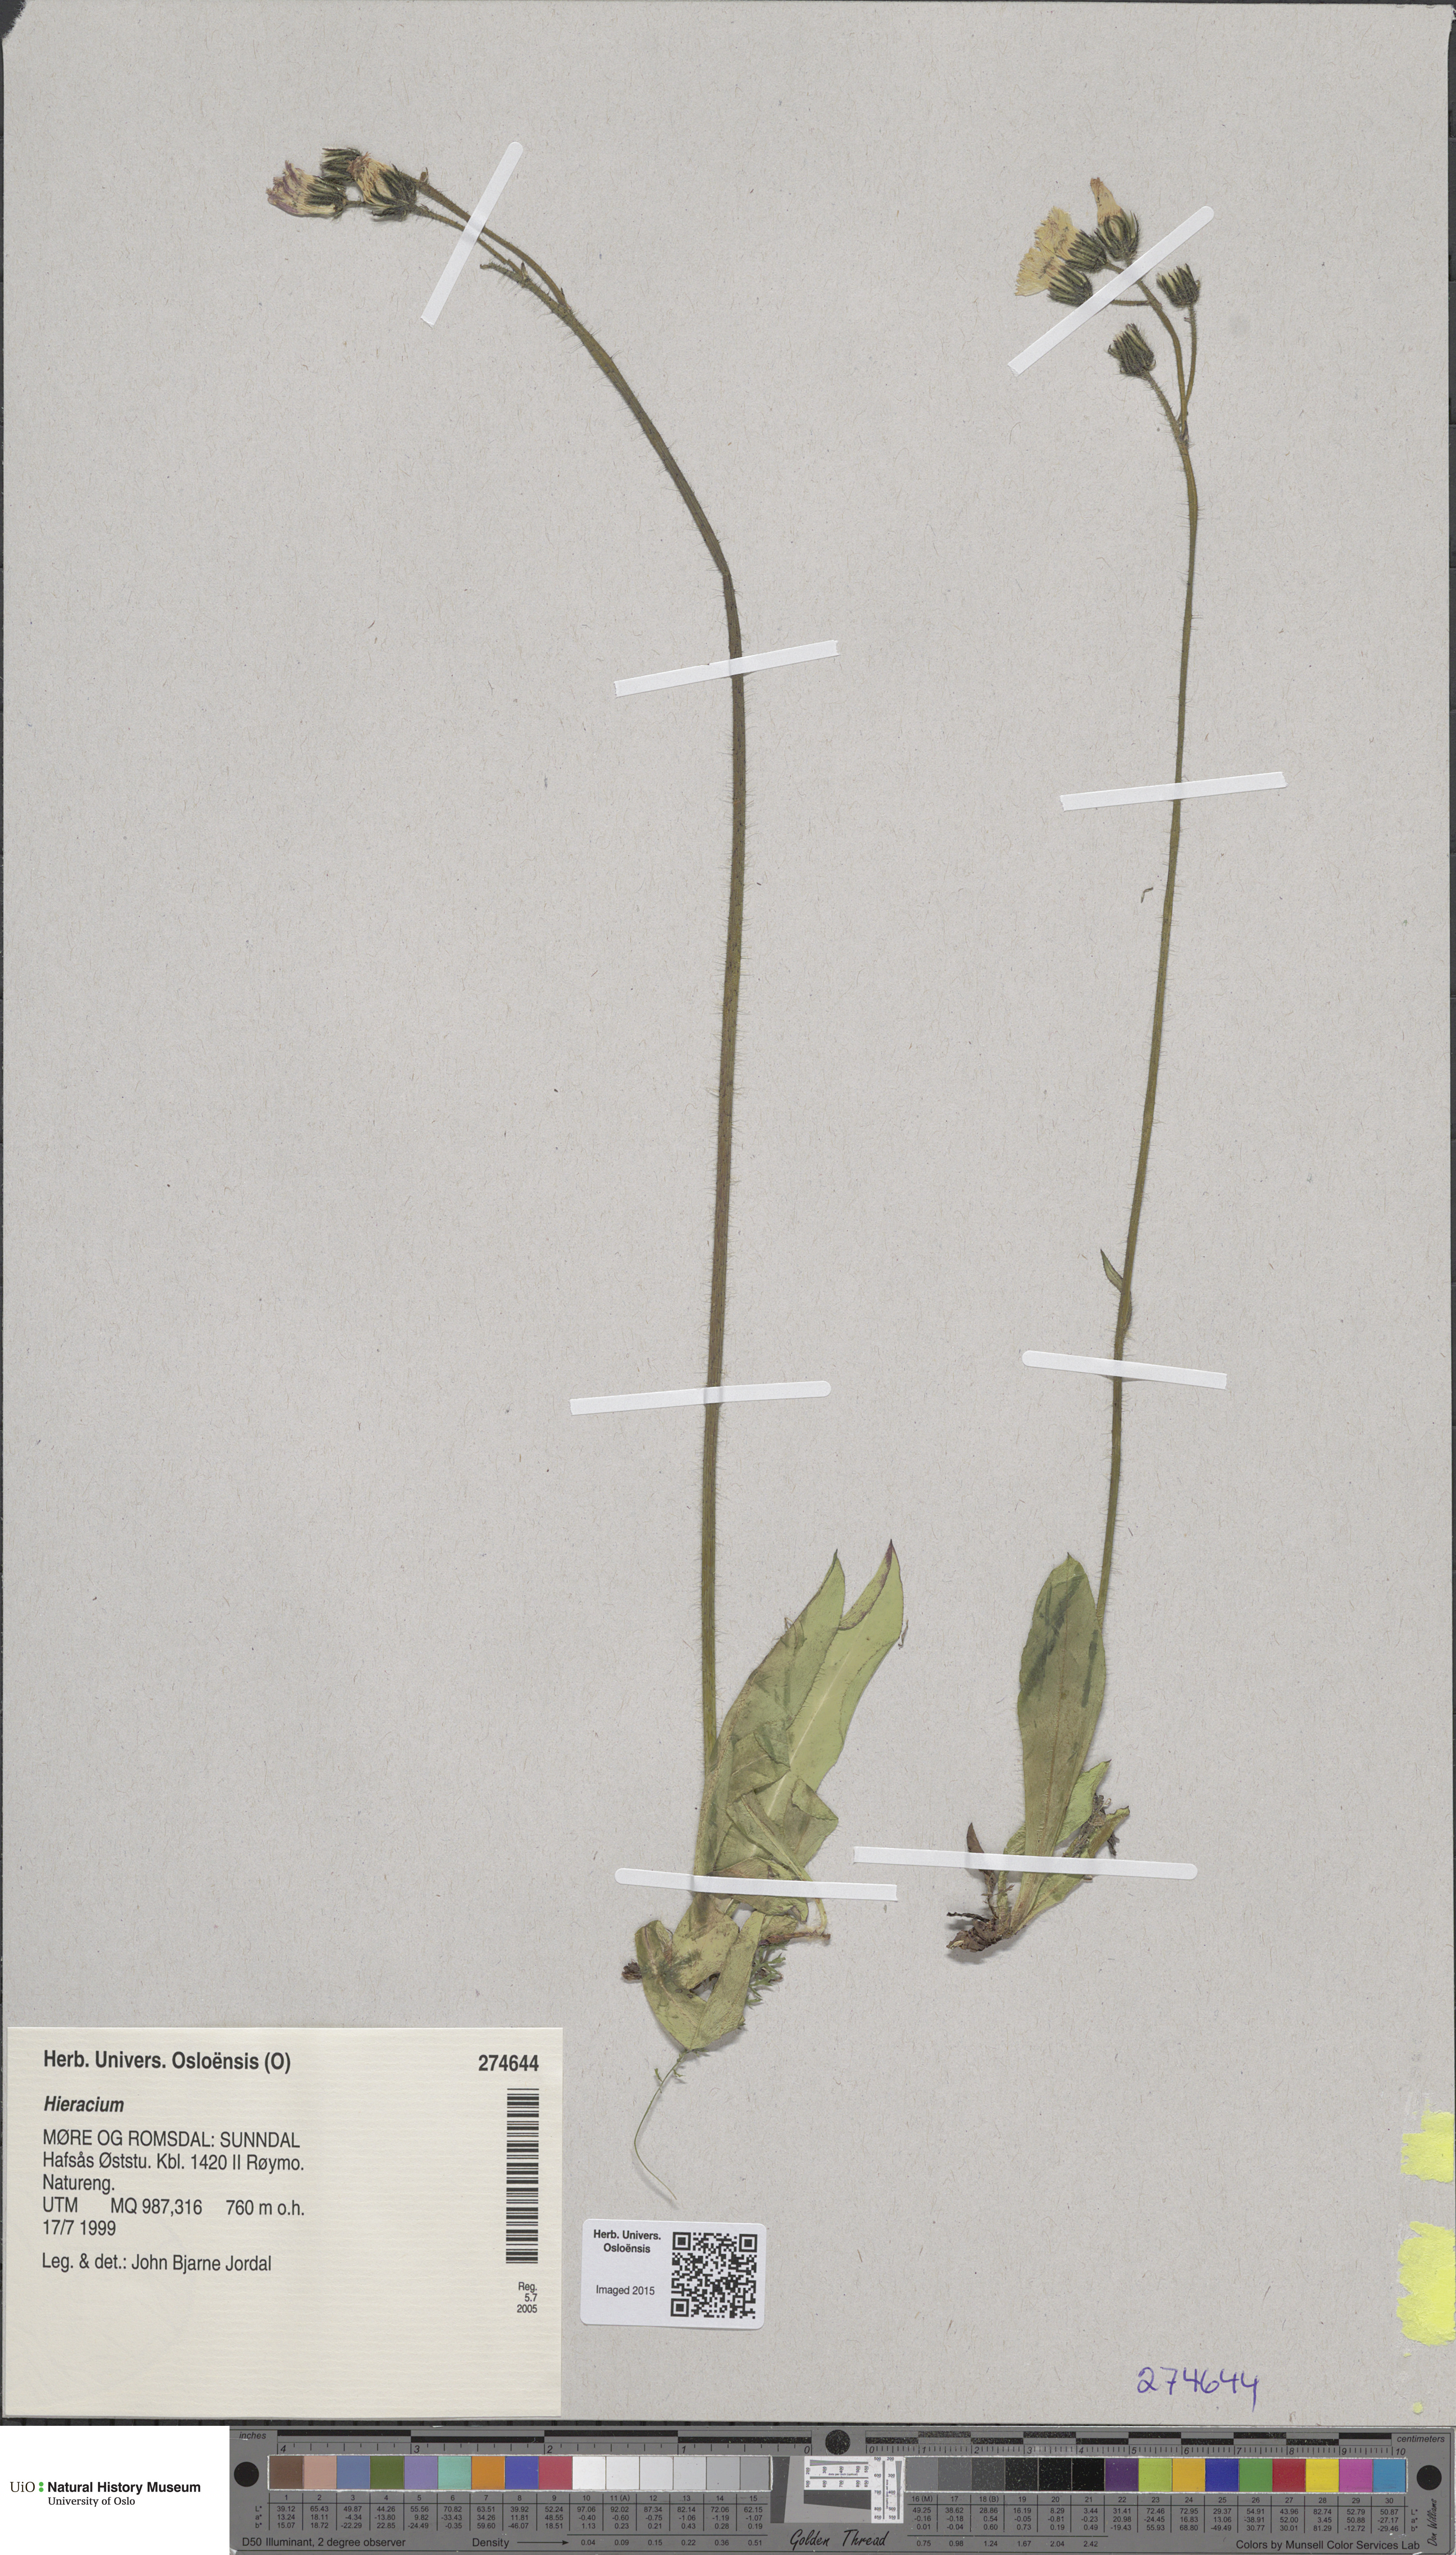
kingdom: Plantae
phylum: Tracheophyta
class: Magnoliopsida
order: Asterales
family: Asteraceae
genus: Hieracium
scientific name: Hieracium
